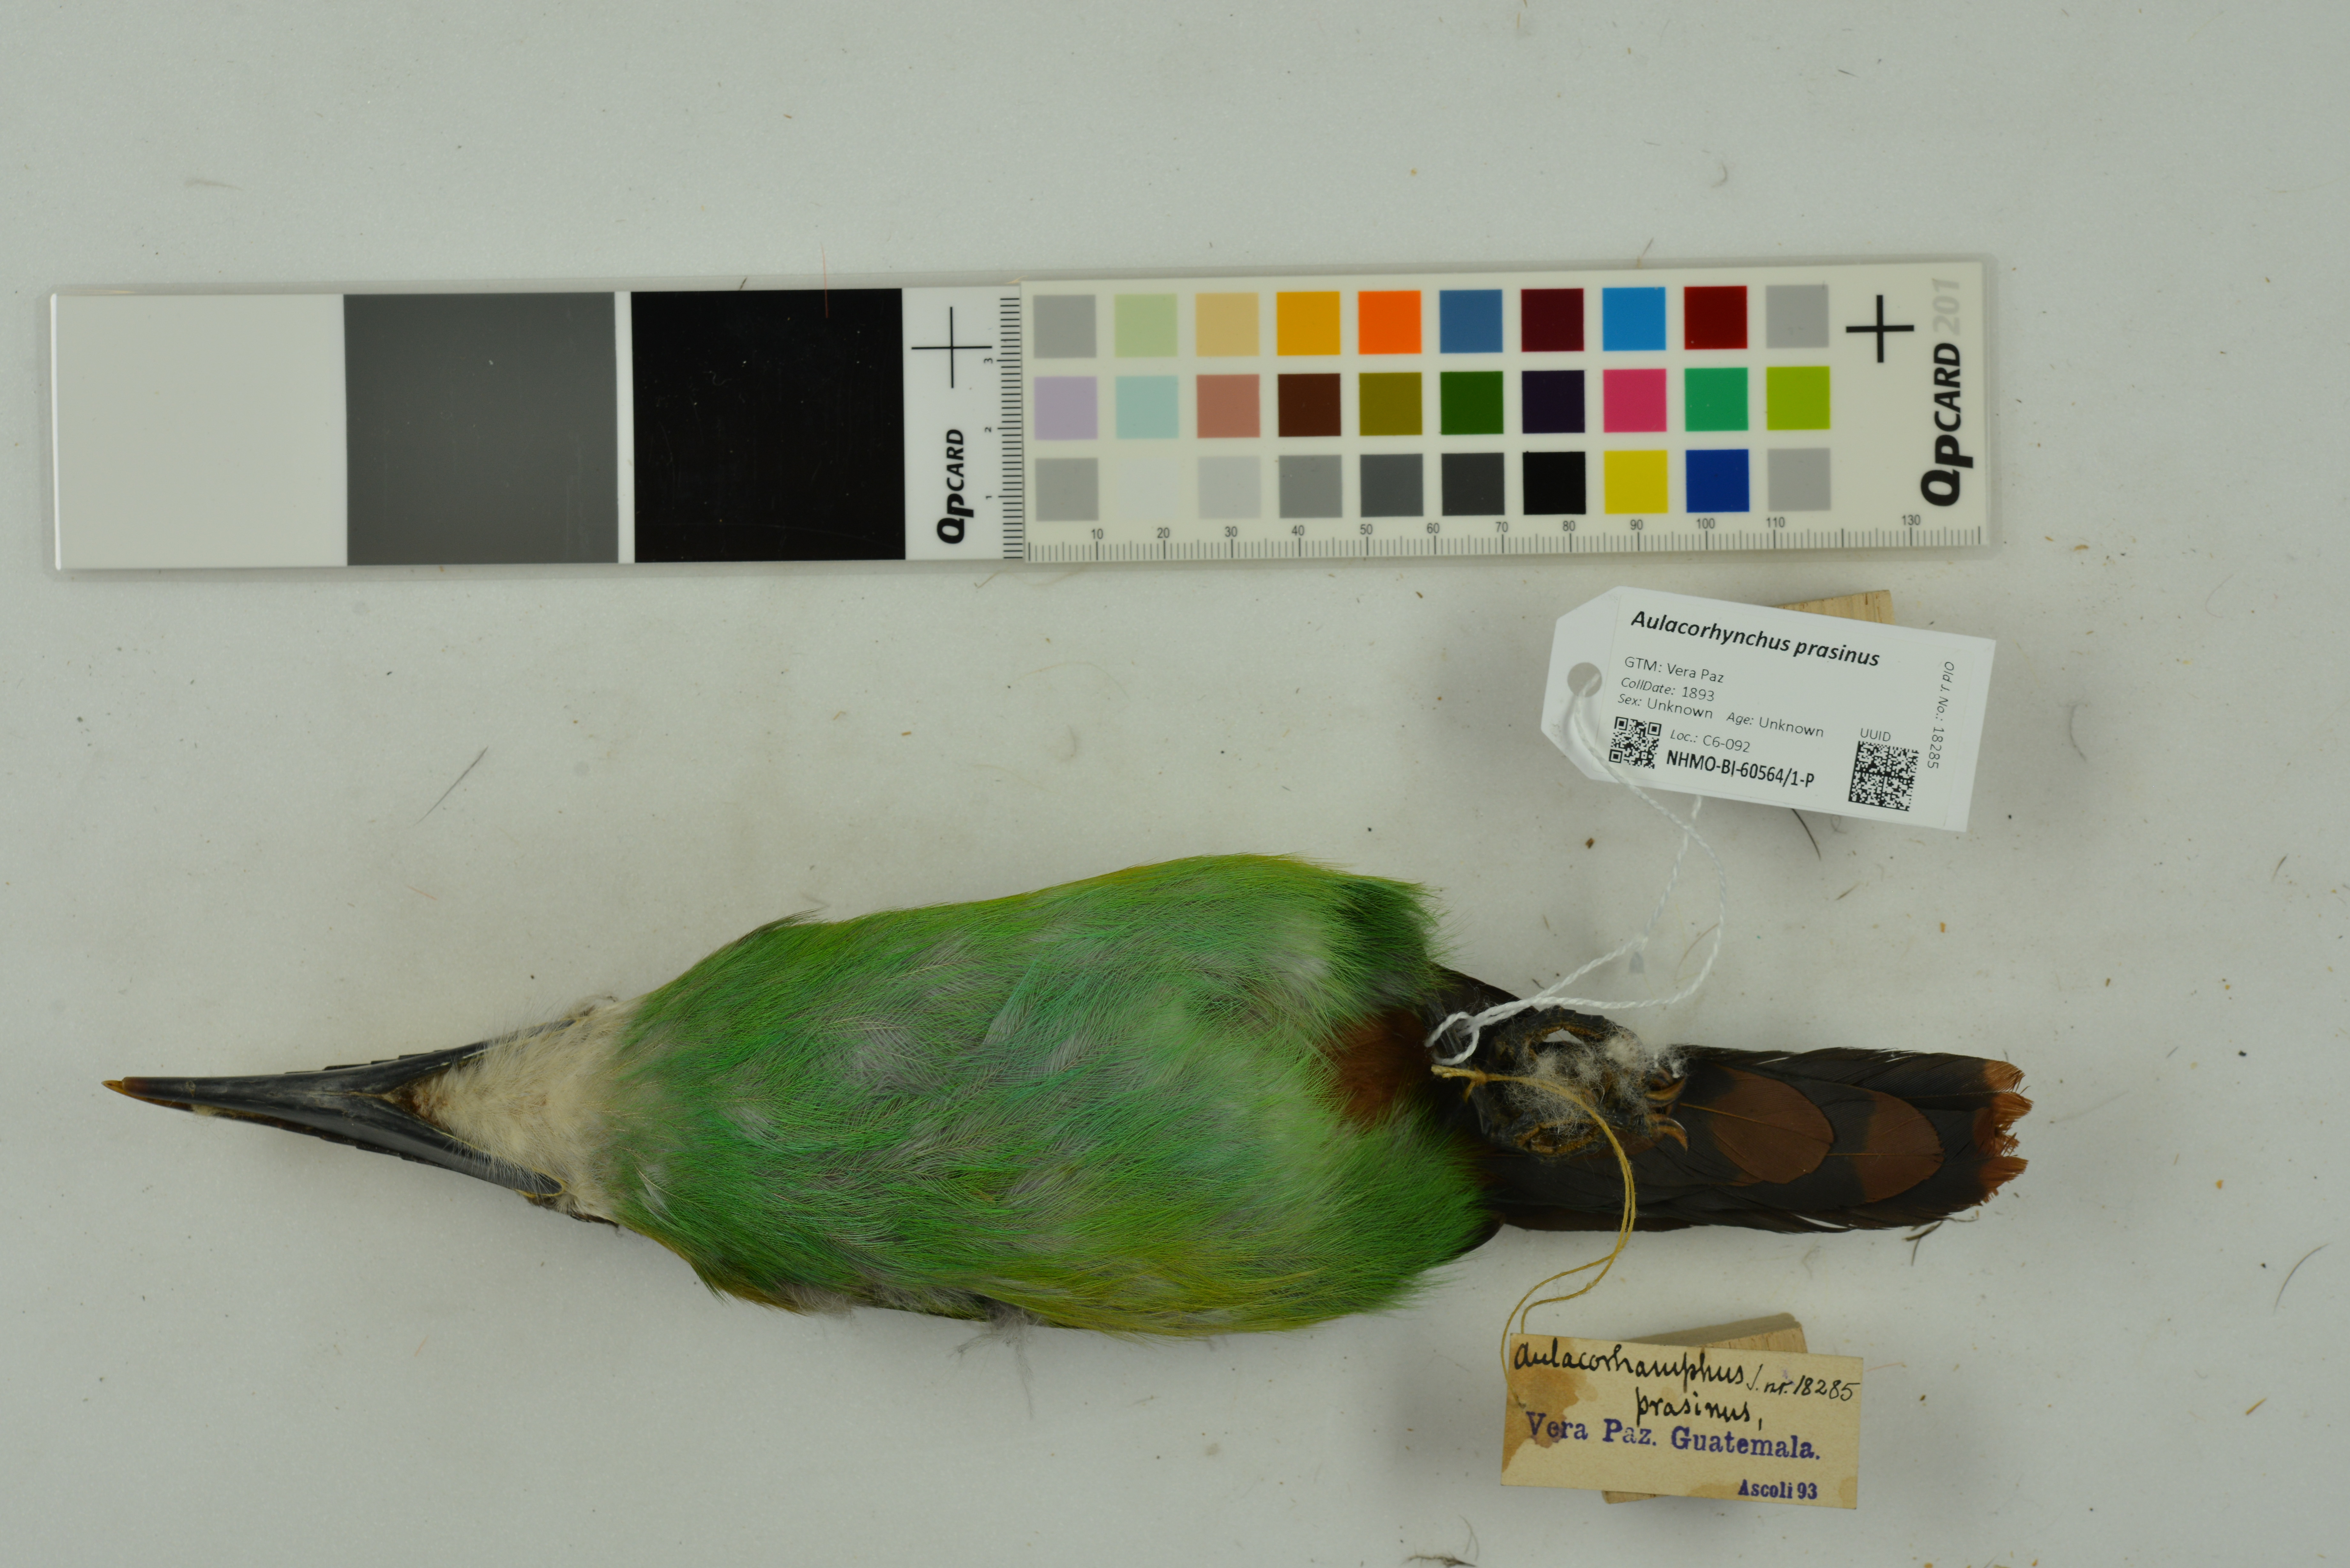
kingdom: Animalia
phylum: Chordata
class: Aves
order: Piciformes
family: Ramphastidae
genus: Aulacorhynchus
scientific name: Aulacorhynchus prasinus
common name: Emerald toucanet
